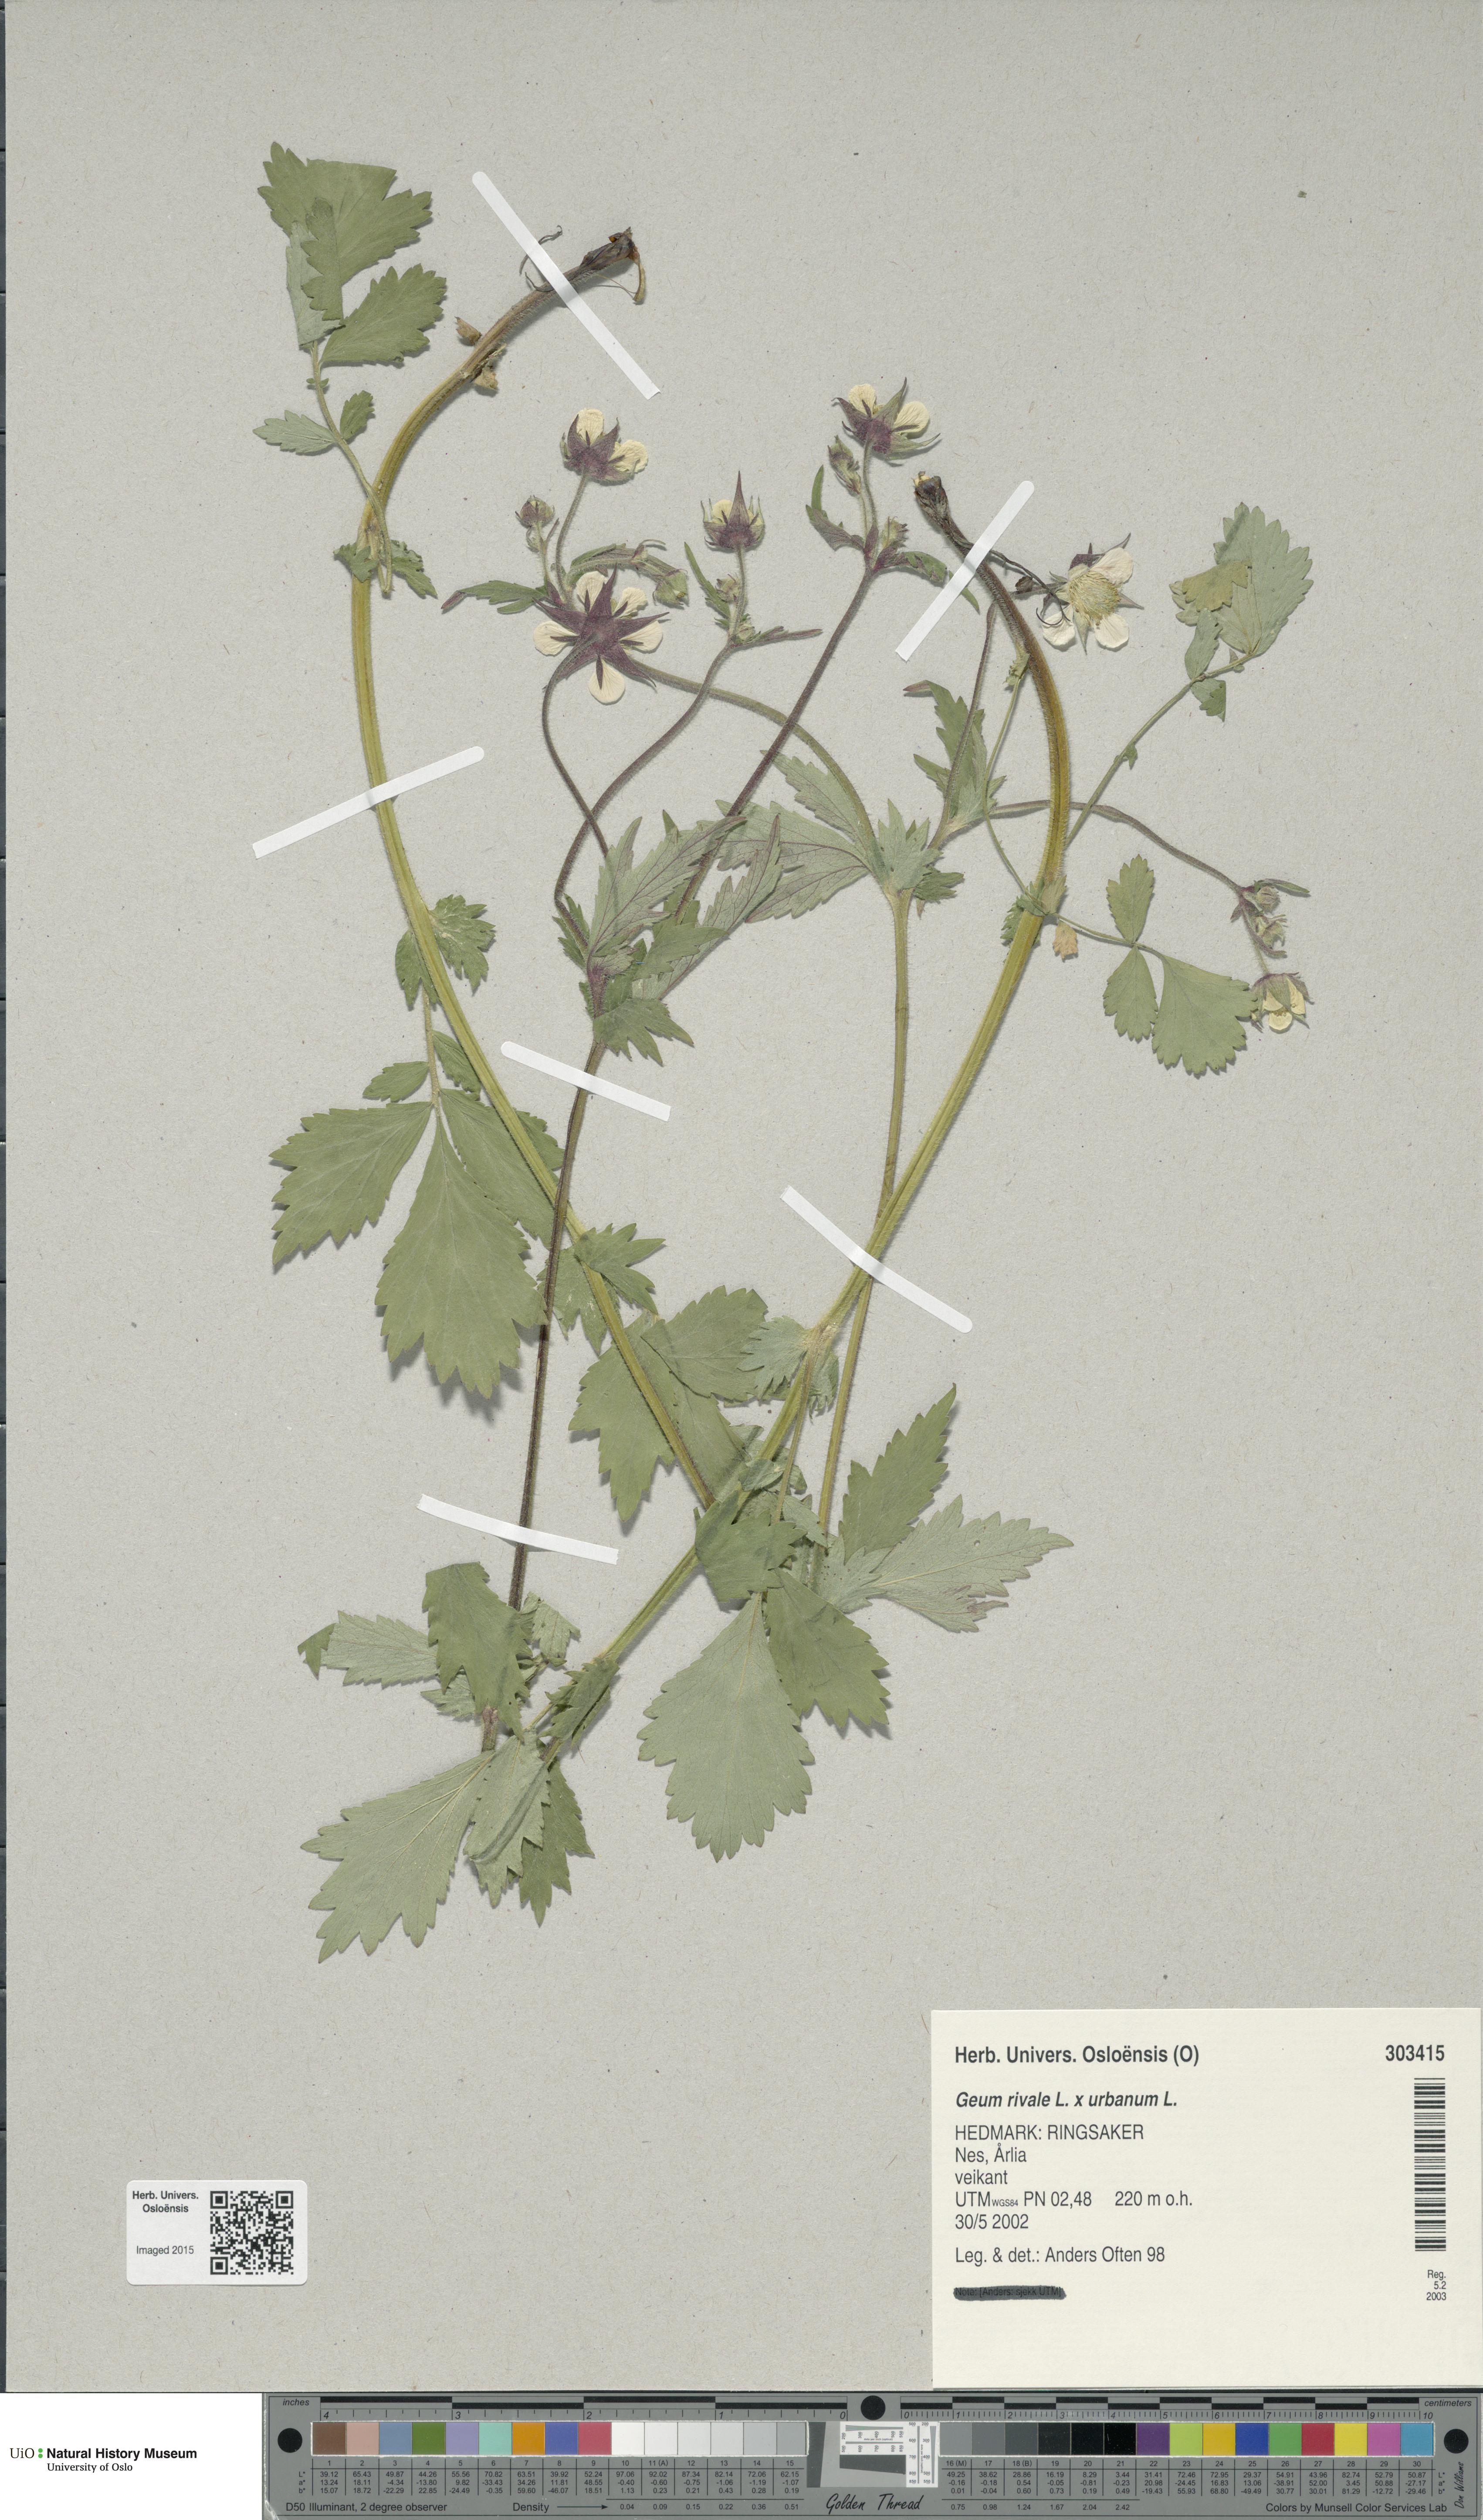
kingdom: Plantae
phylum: Tracheophyta
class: Magnoliopsida
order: Rosales
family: Rosaceae
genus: Geum
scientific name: Geum
